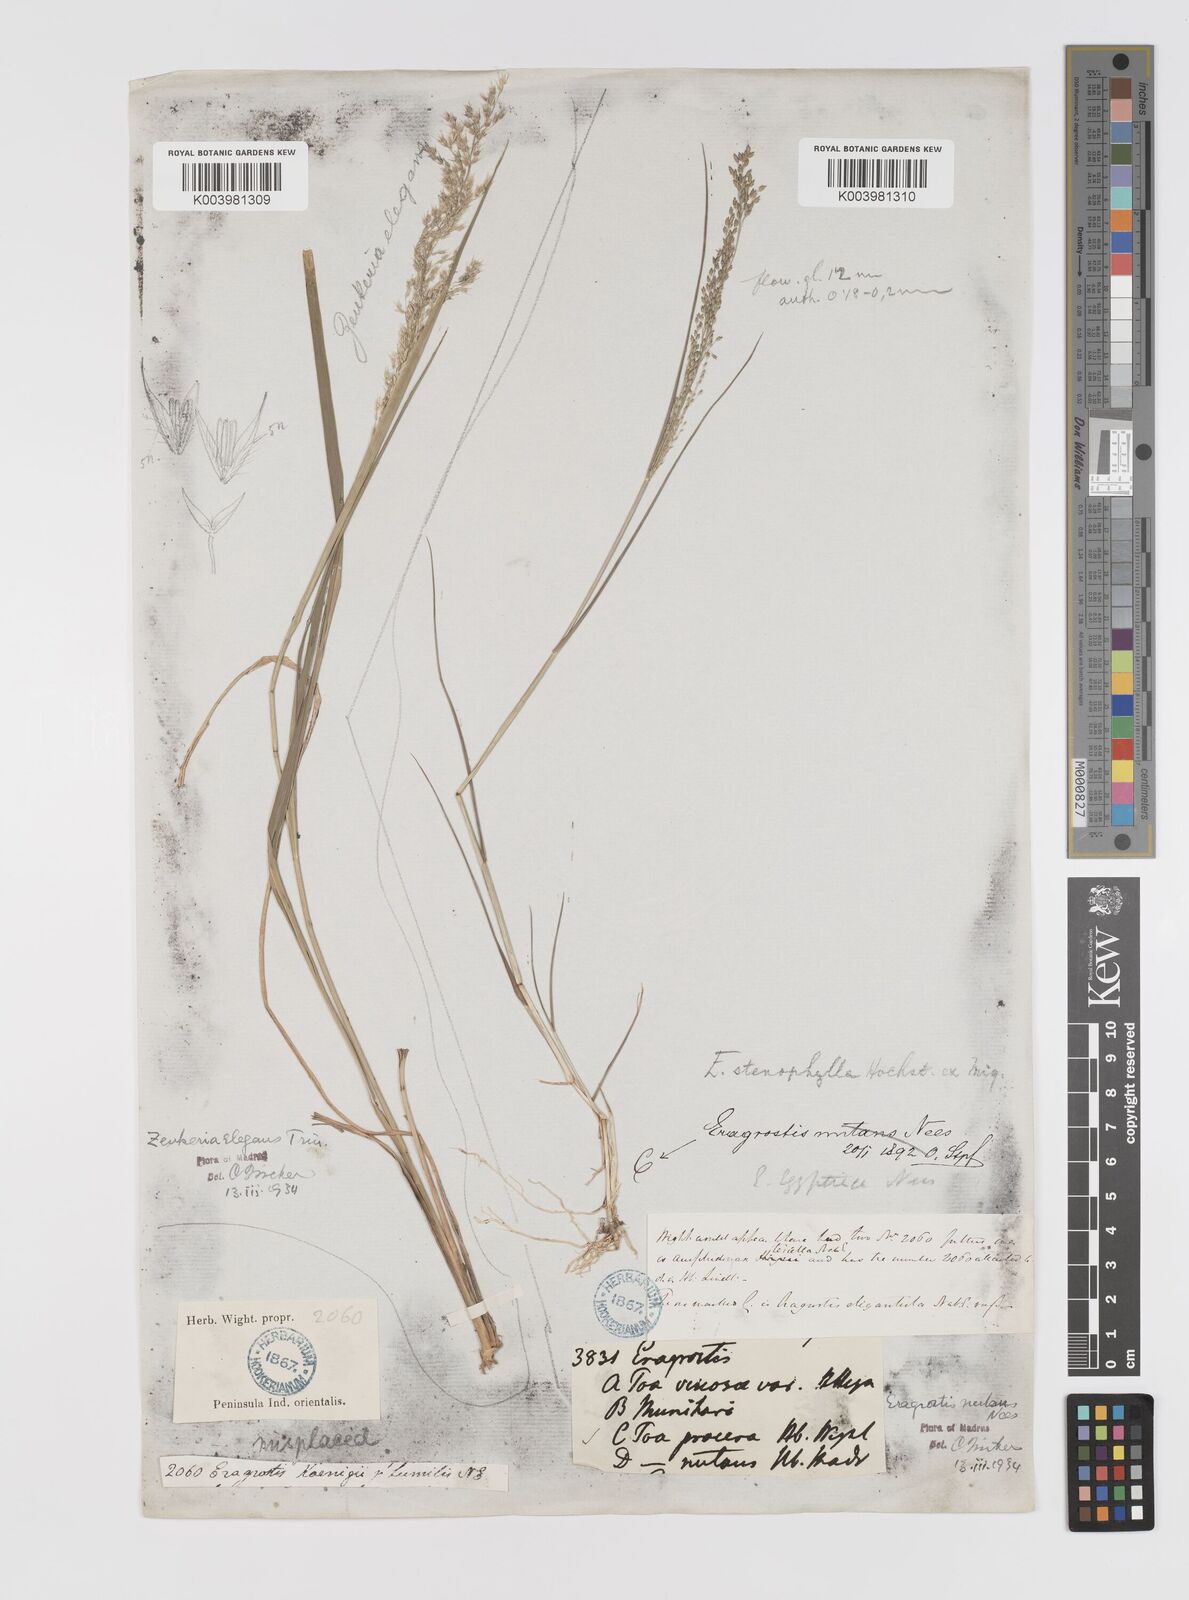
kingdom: Plantae
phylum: Tracheophyta
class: Liliopsida
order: Poales
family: Poaceae
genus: Eragrostis
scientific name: Eragrostis
